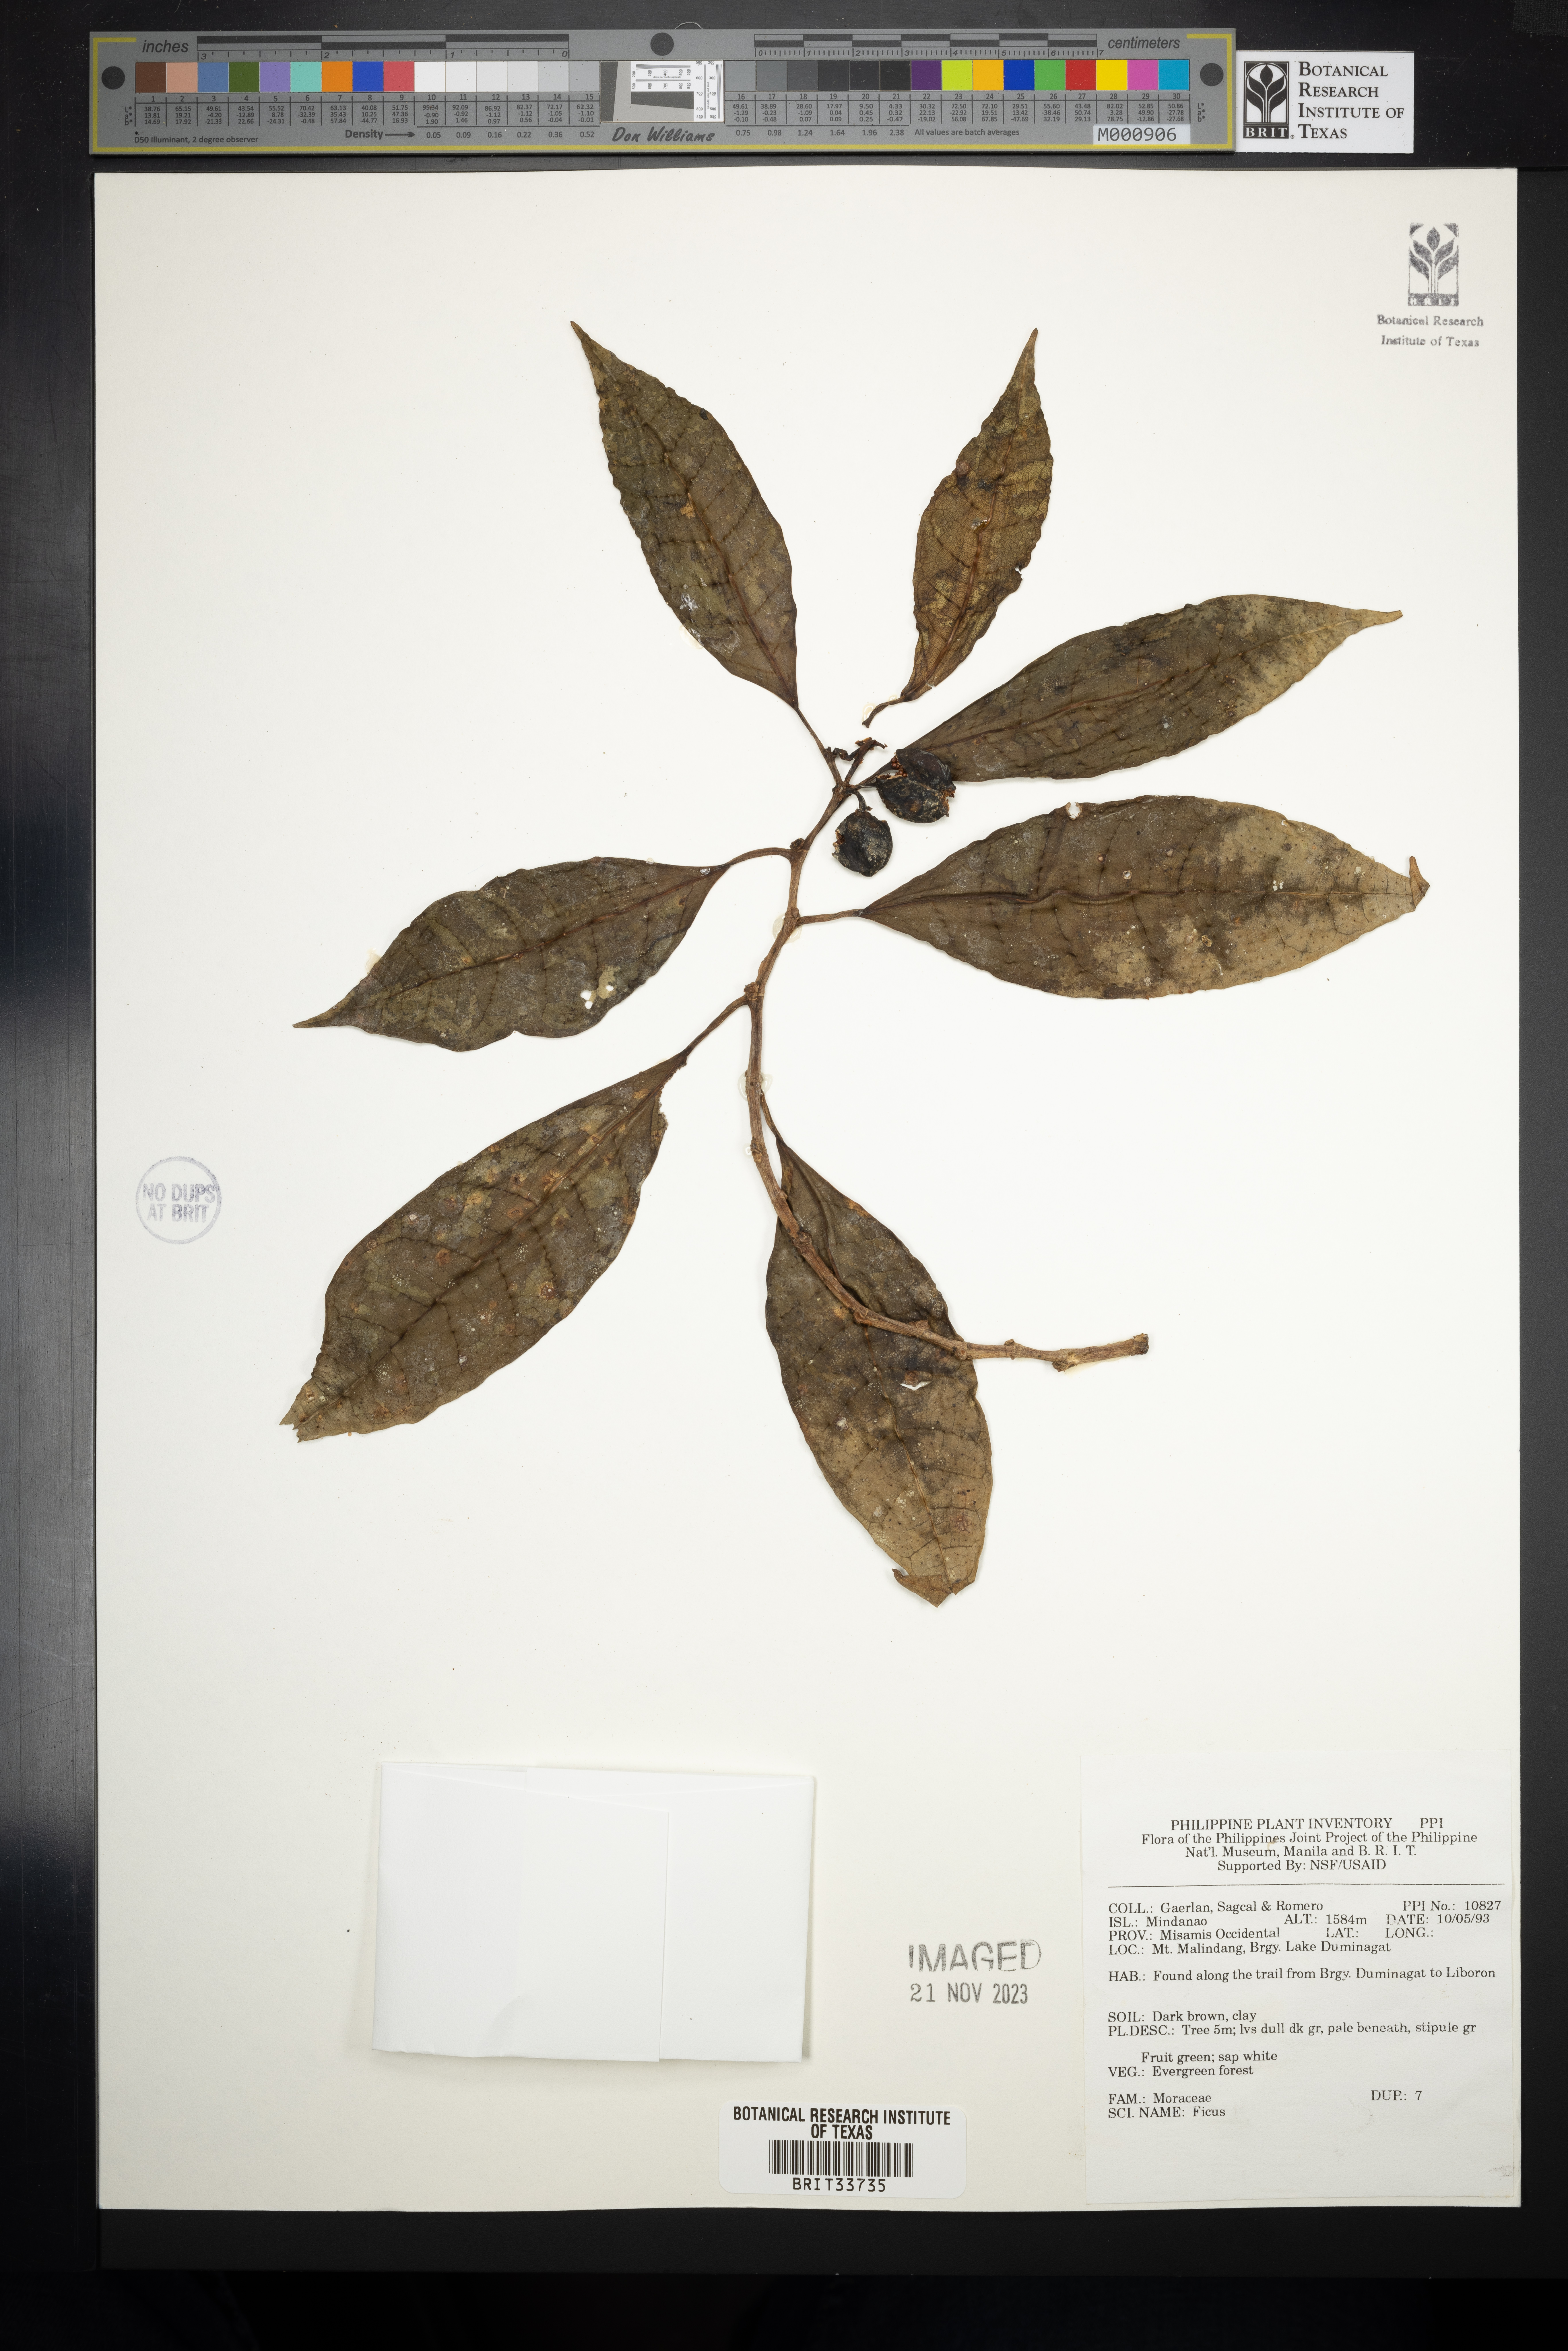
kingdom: Plantae
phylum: Tracheophyta
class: Magnoliopsida
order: Rosales
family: Moraceae
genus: Ficus
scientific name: Ficus
